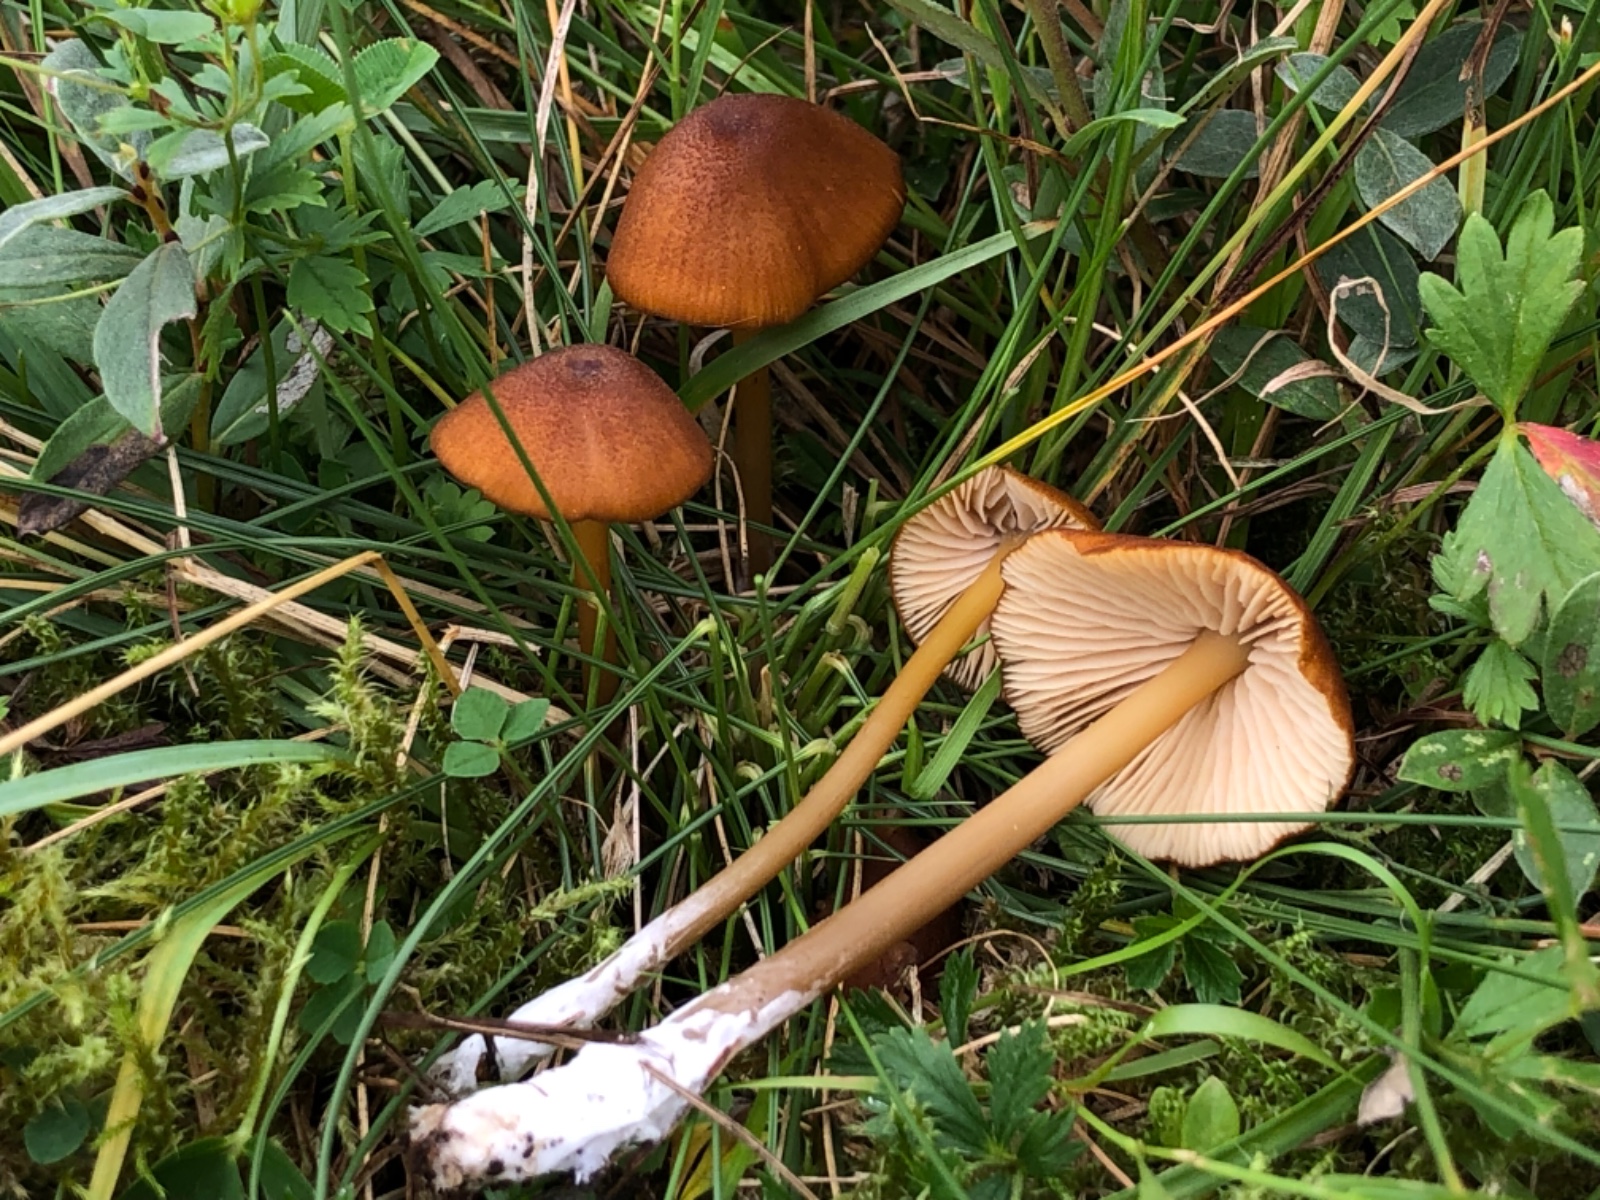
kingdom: Fungi
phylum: Basidiomycota
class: Agaricomycetes
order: Agaricales
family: Entolomataceae
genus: Entoloma
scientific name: Entoloma formosum
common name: brungul rødblad
